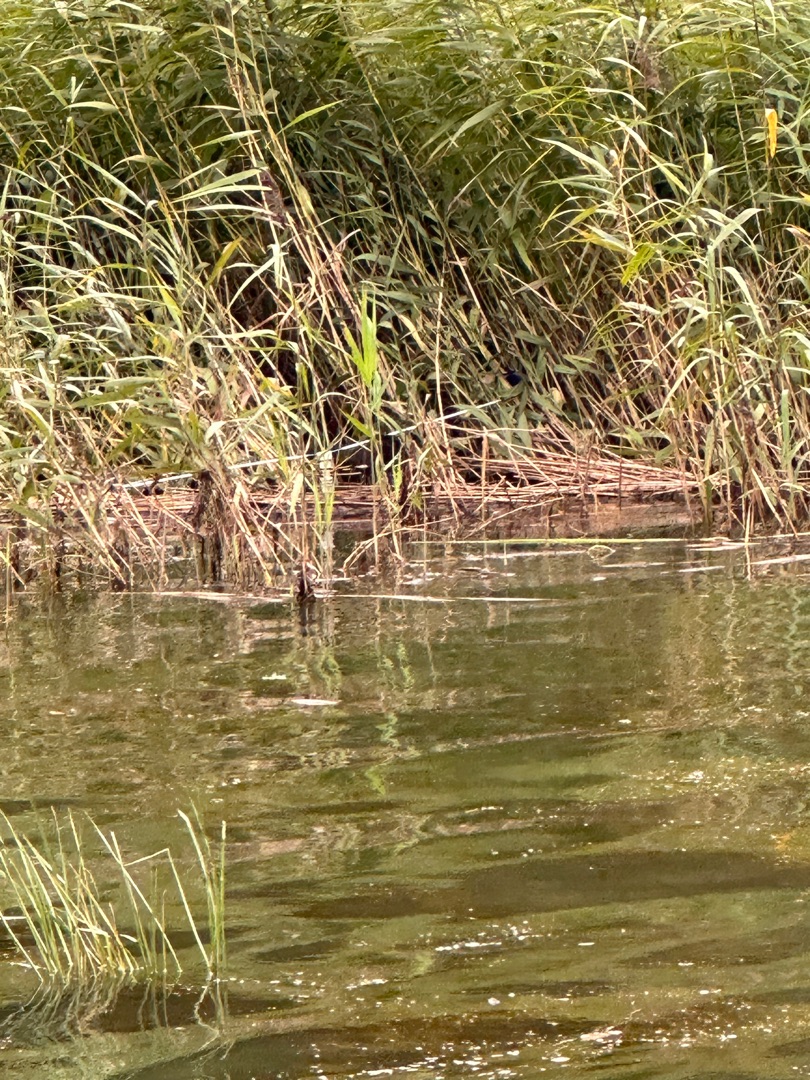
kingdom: Animalia
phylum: Chordata
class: Aves
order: Gruiformes
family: Rallidae
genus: Gallinula
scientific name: Gallinula chloropus
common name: Grønbenet rørhøne
